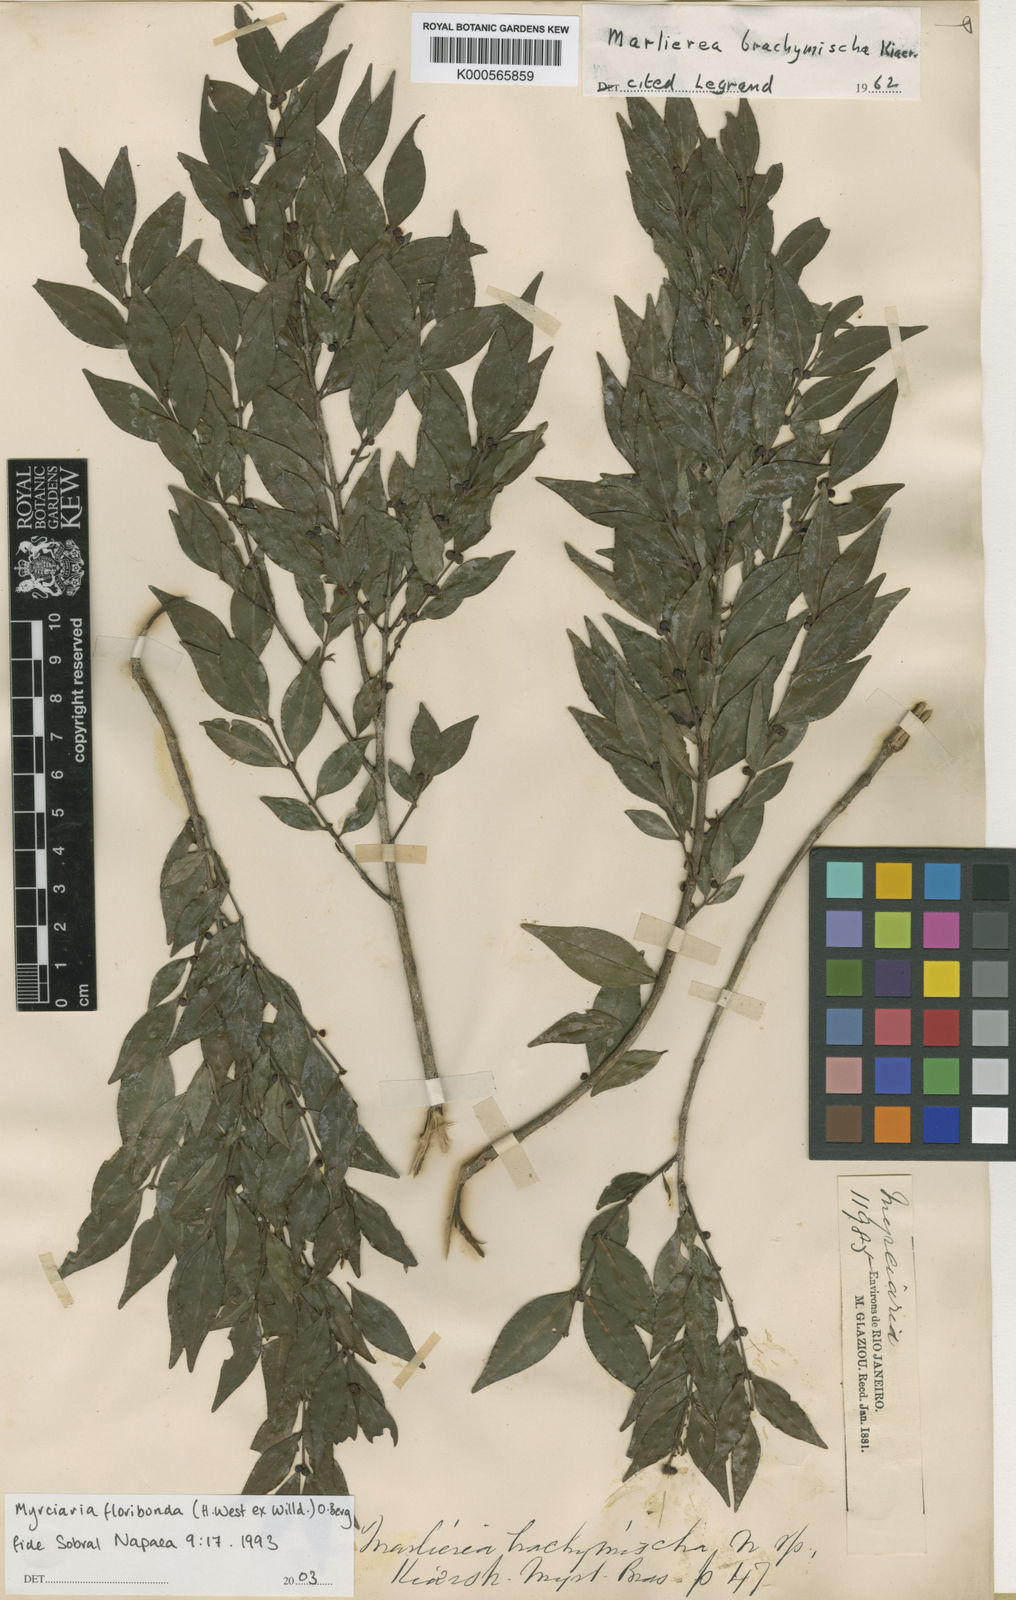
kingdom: Plantae
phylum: Tracheophyta
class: Magnoliopsida
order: Myrtales
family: Myrtaceae
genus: Myrciaria
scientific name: Myrciaria floribunda
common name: Guavaberry
